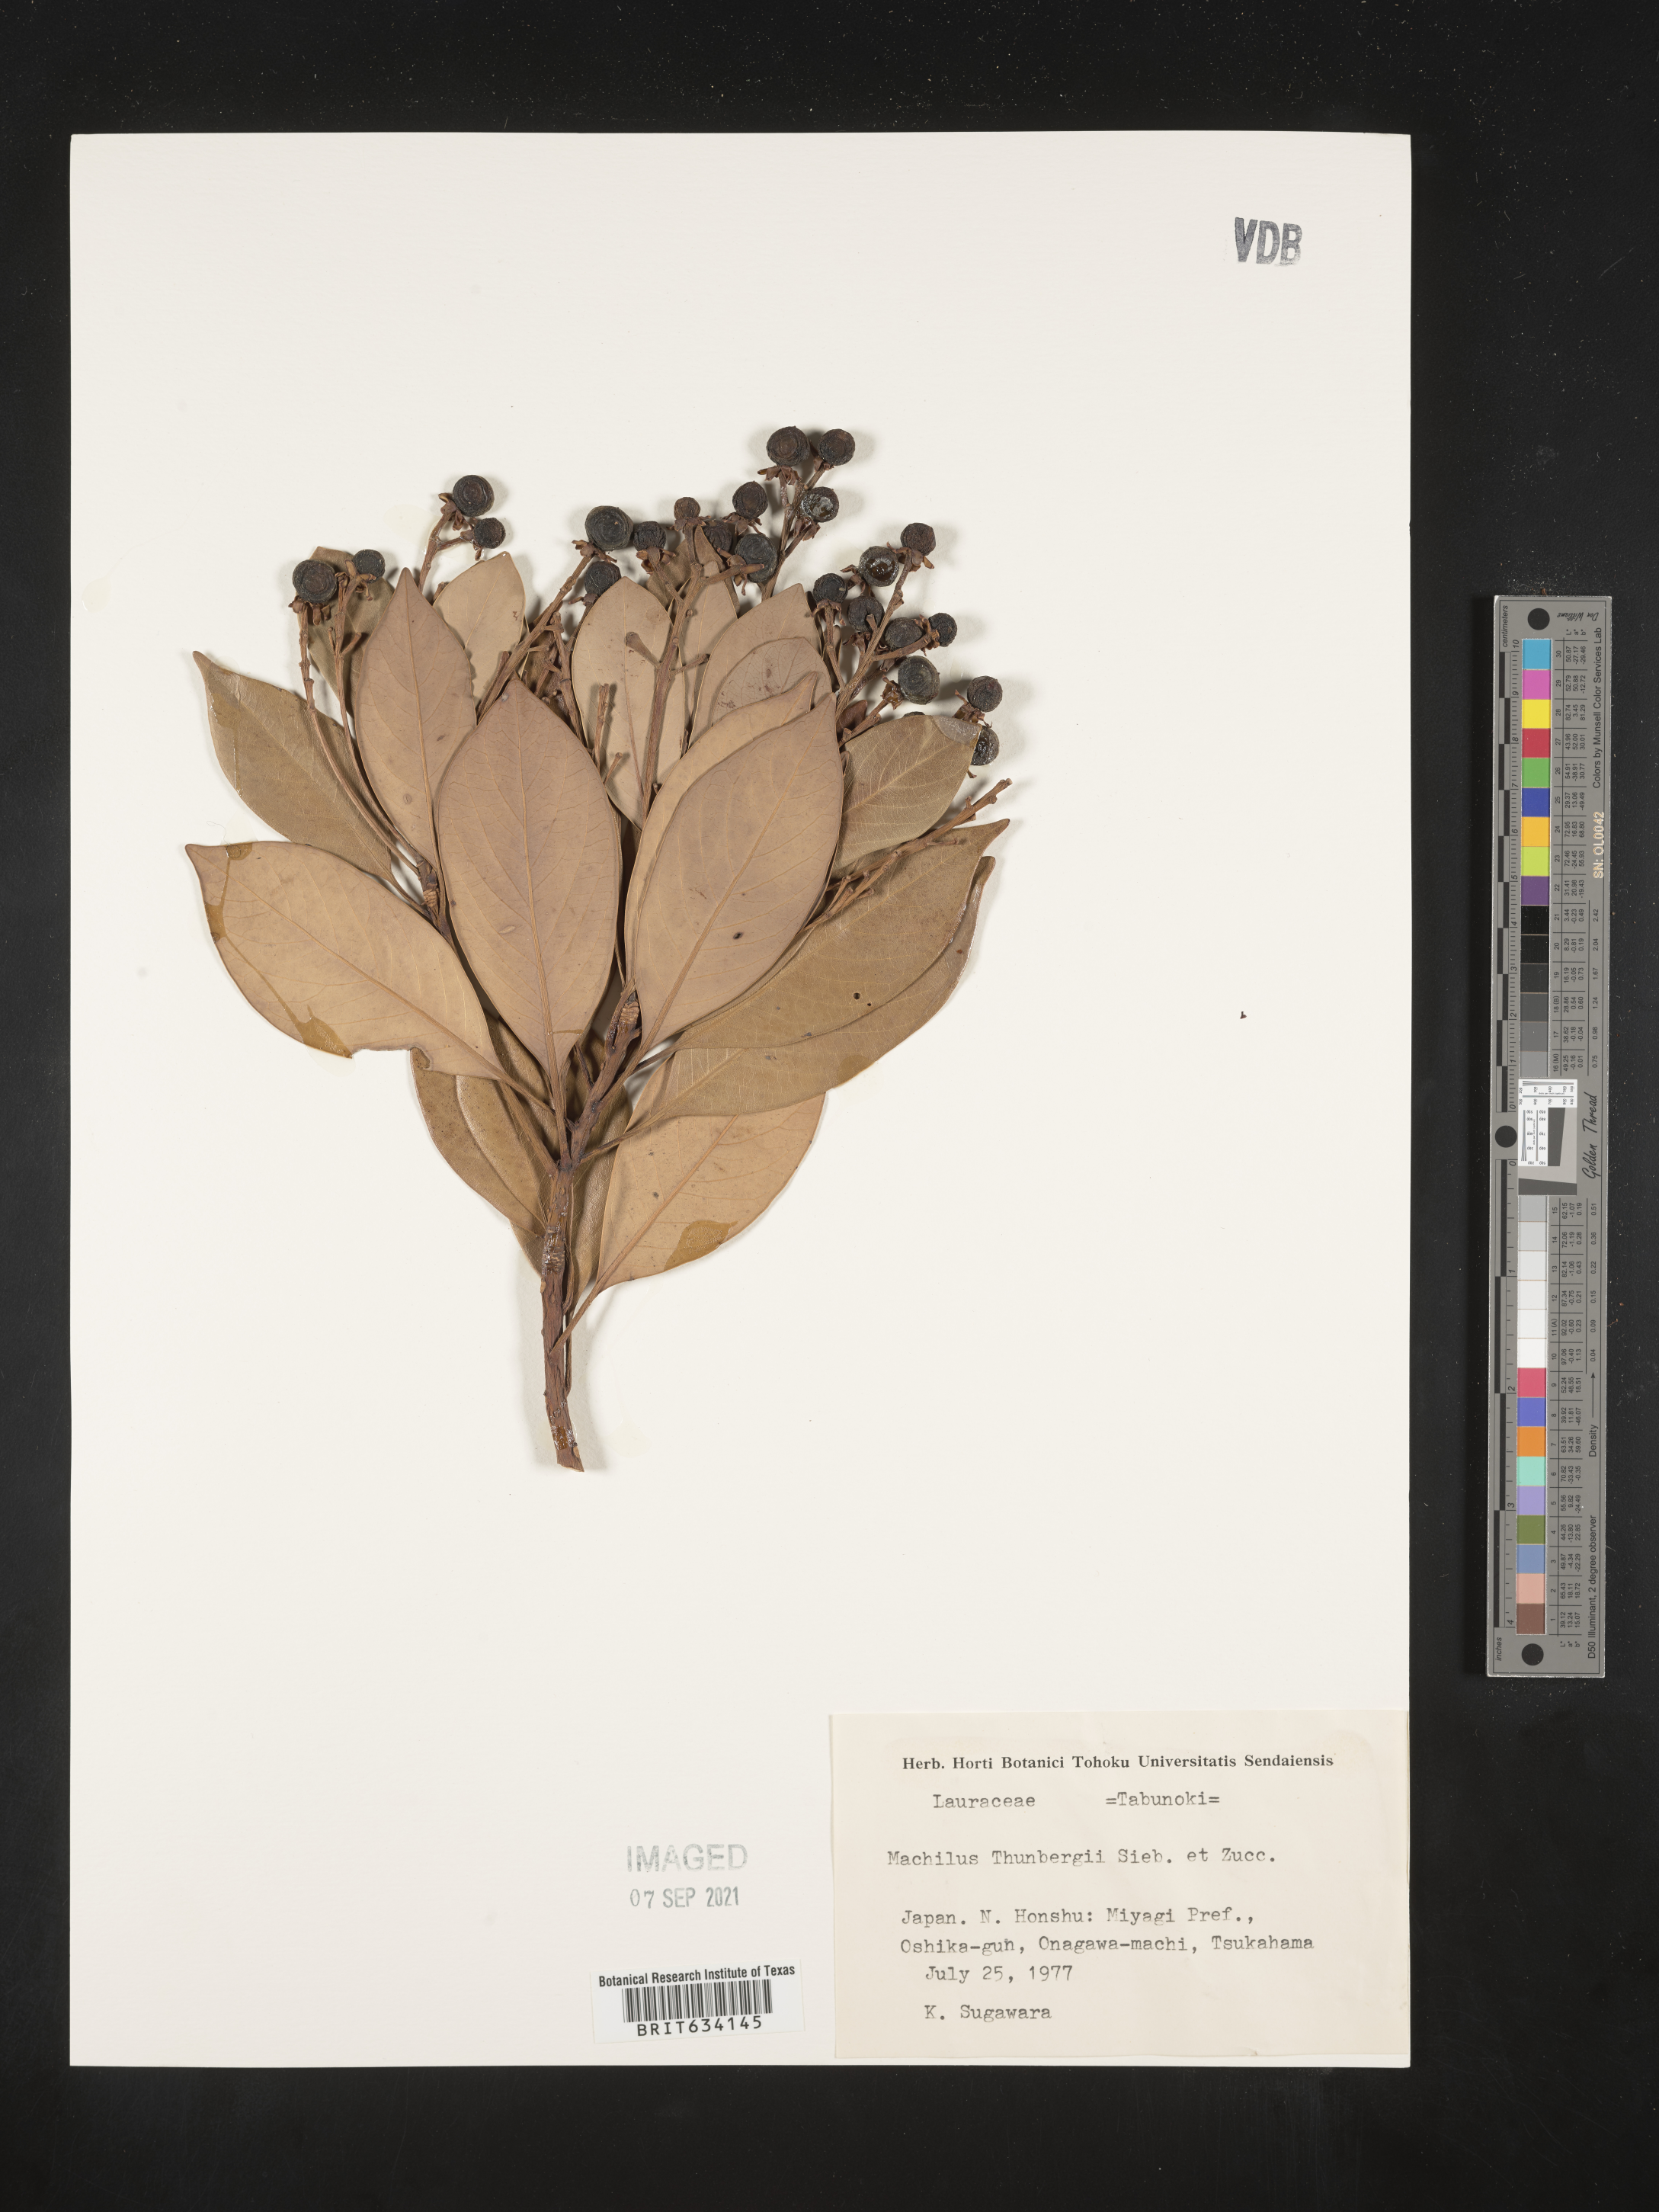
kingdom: Plantae
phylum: Tracheophyta
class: Magnoliopsida
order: Laurales
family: Lauraceae
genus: Mezilaurus
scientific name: Mezilaurus
